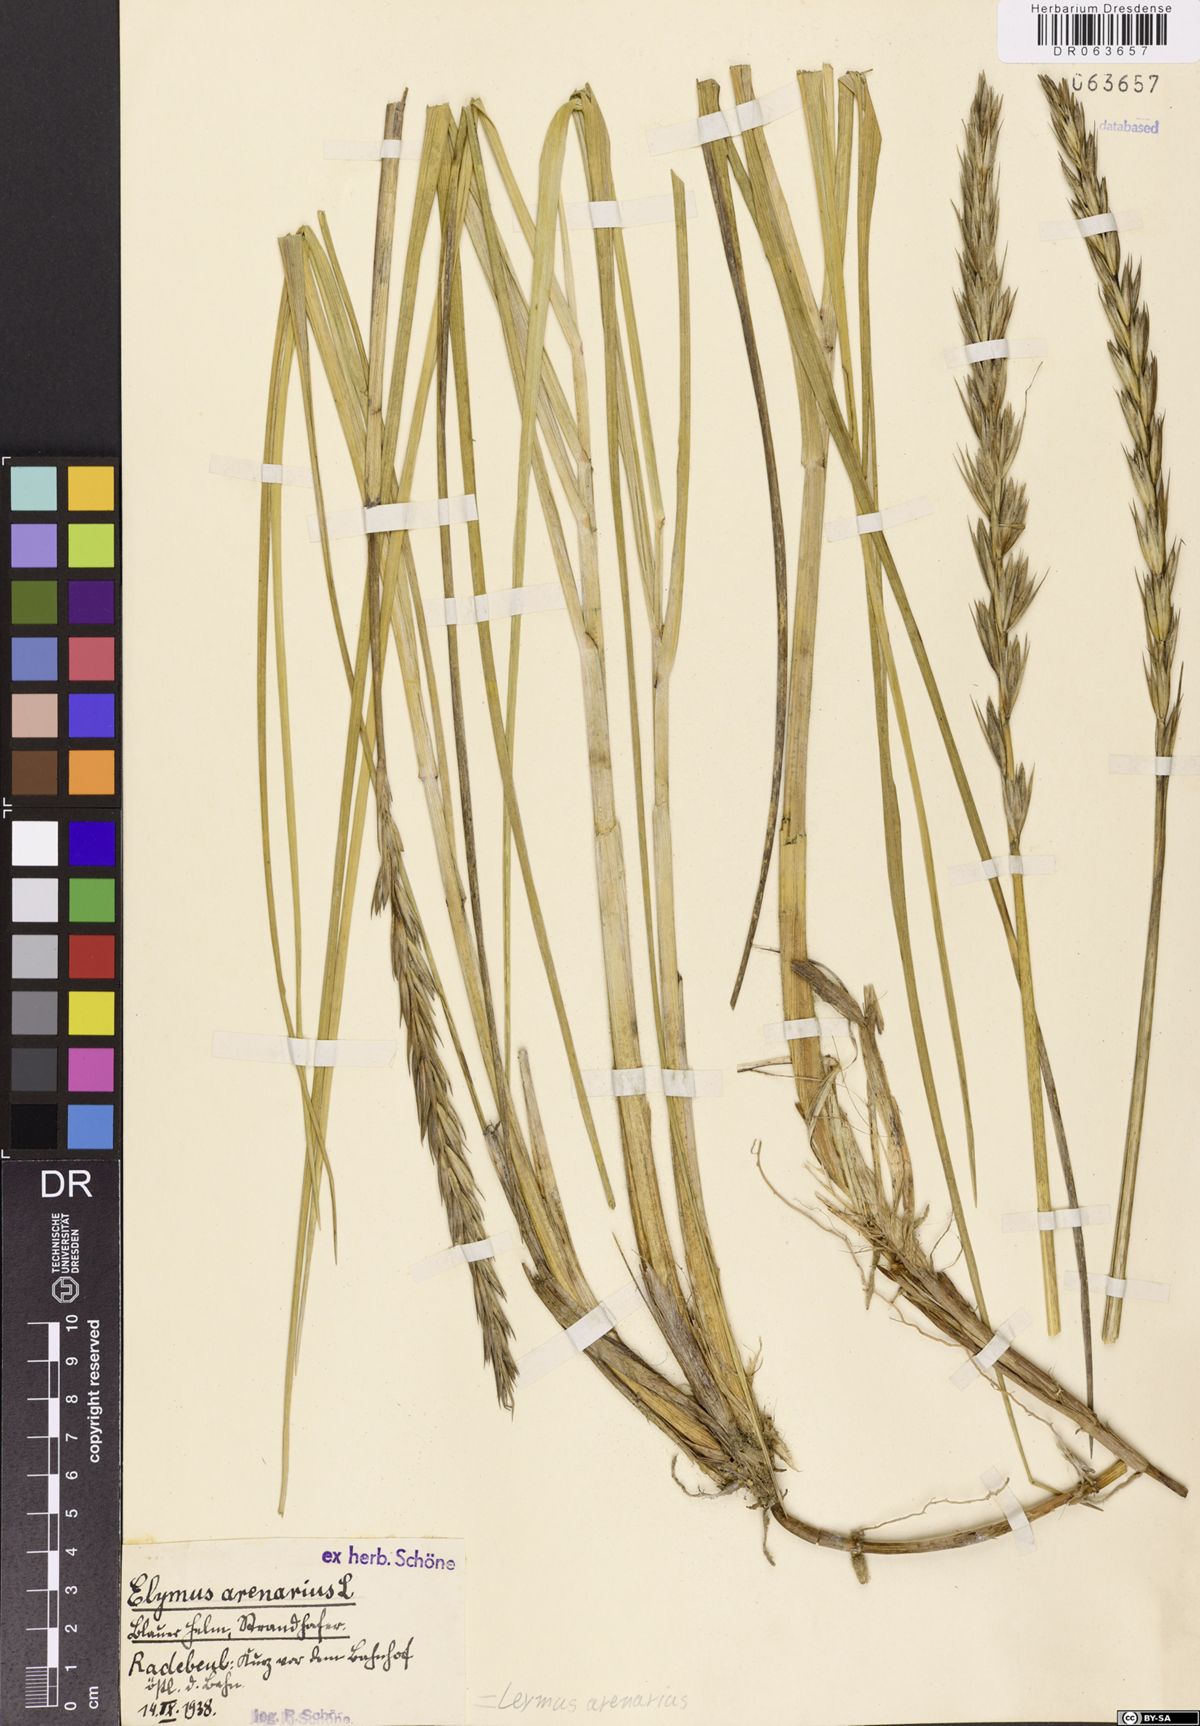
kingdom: Plantae
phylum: Tracheophyta
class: Liliopsida
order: Poales
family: Poaceae
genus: Leymus
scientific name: Leymus arenarius
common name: Lyme-grass
